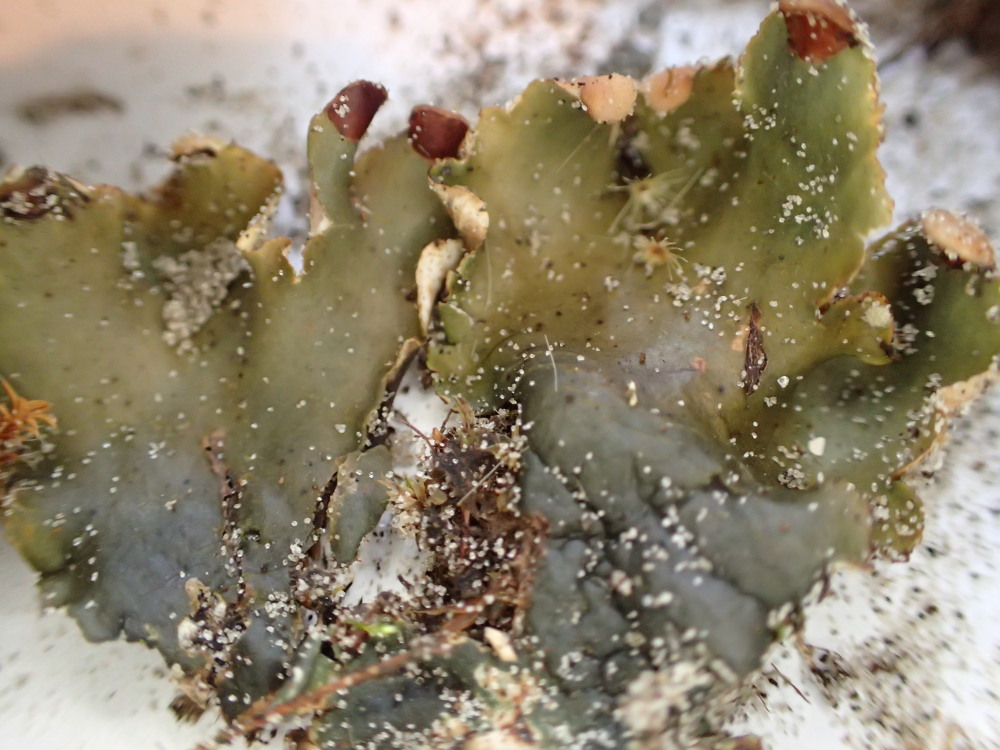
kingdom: Fungi
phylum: Ascomycota
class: Lecanoromycetes
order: Peltigerales
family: Peltigeraceae
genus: Peltigera
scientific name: Peltigera hymenina
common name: hinde-skjoldlav
